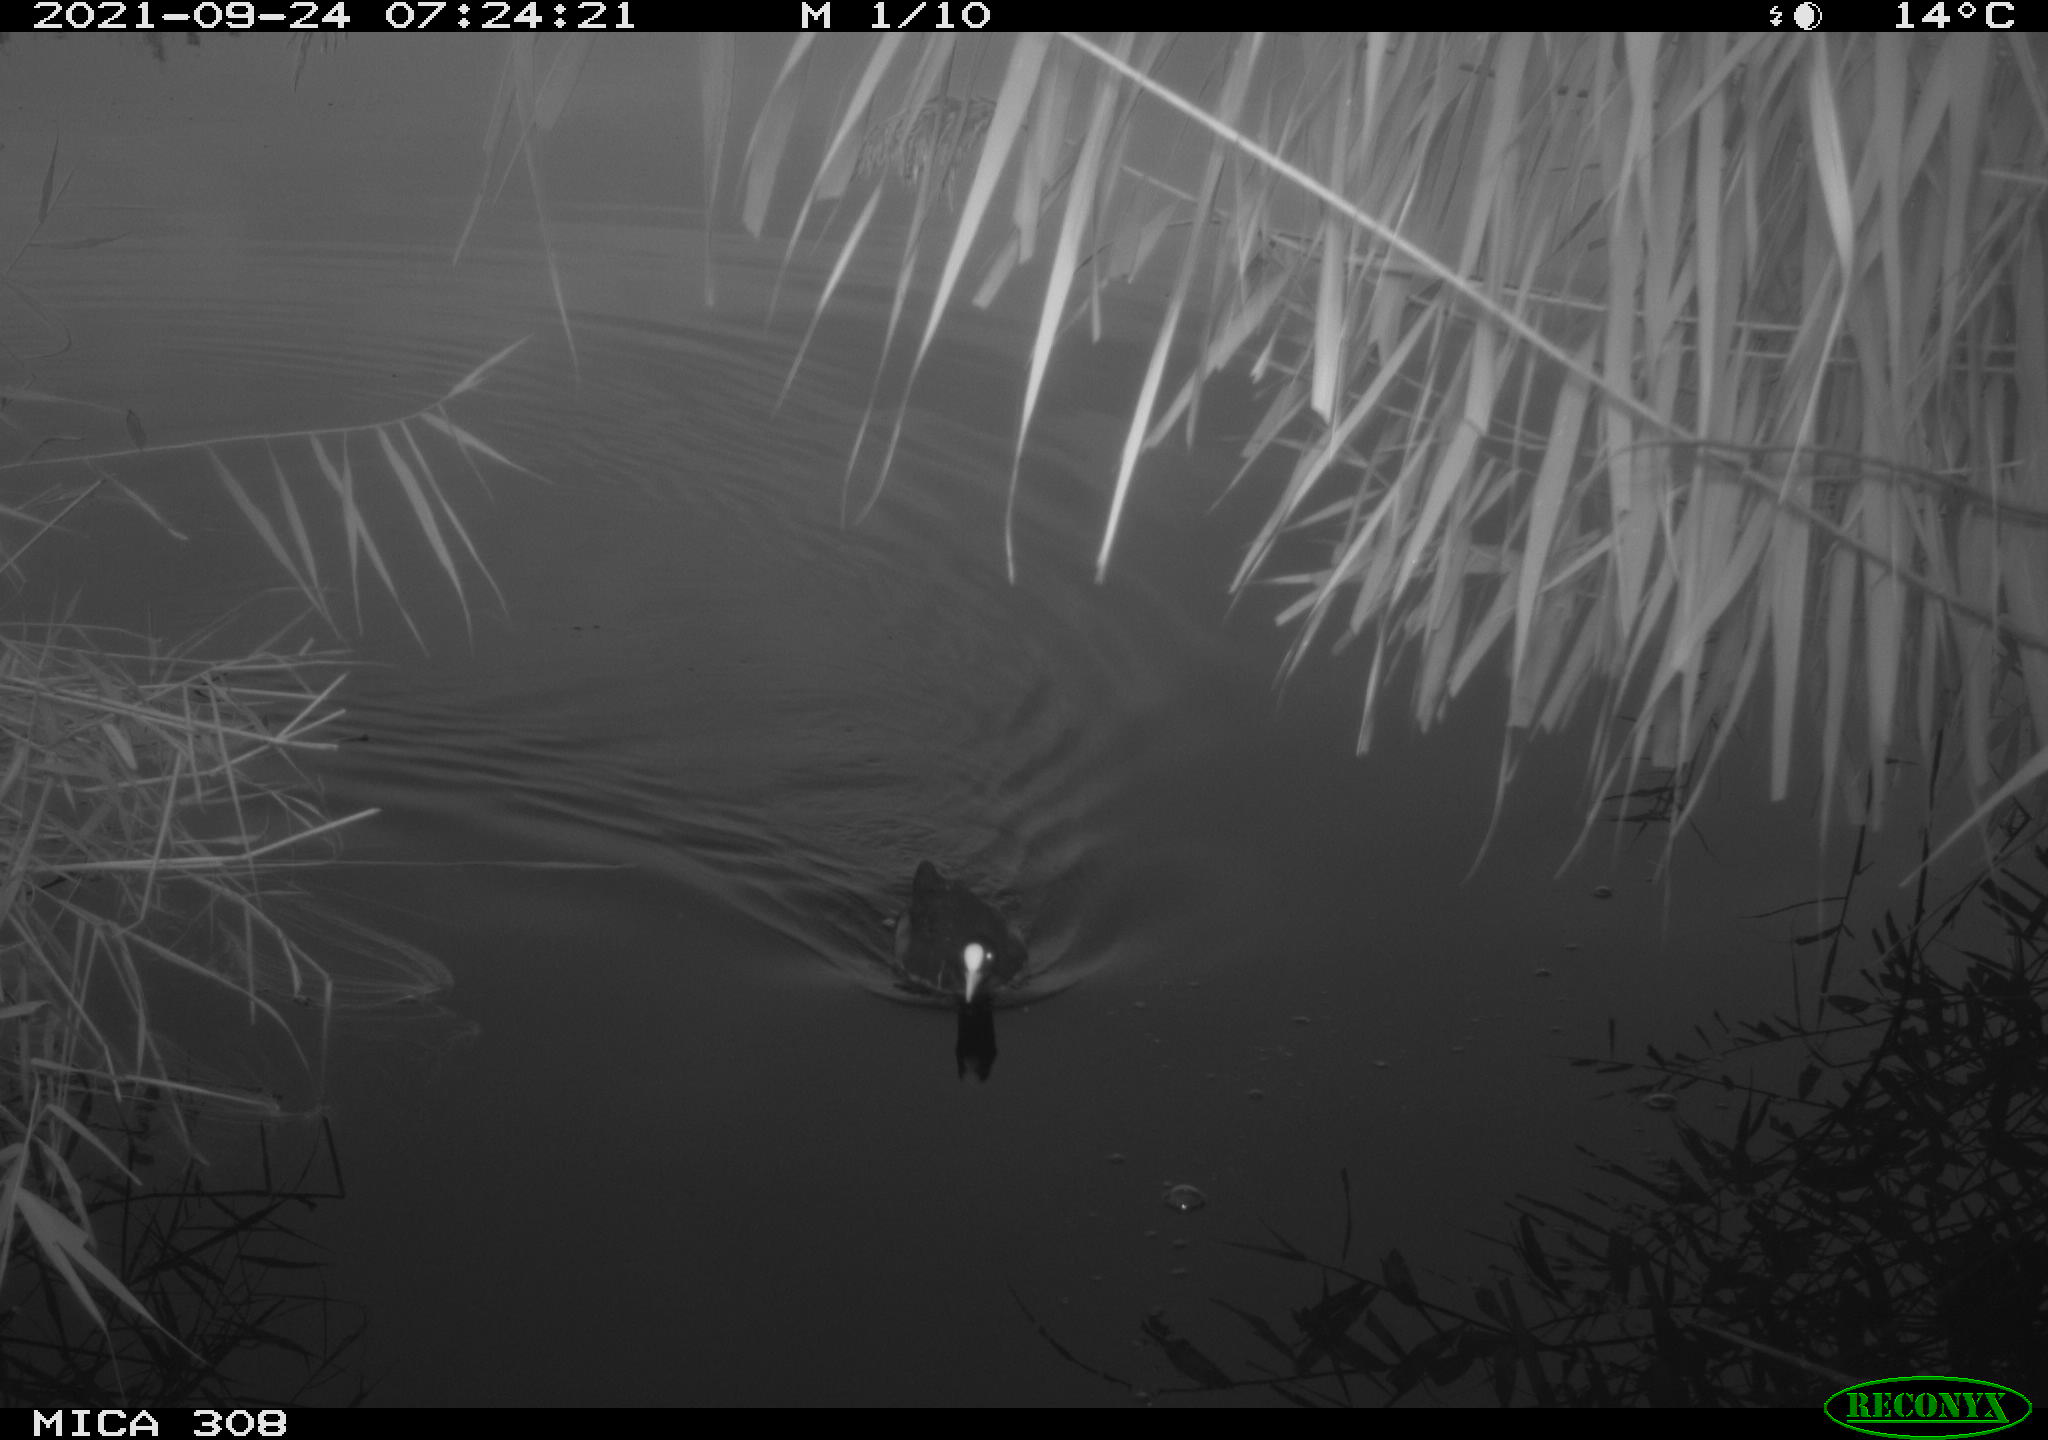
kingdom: Animalia
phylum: Chordata
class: Aves
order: Gruiformes
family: Rallidae
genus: Fulica
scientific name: Fulica atra
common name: Eurasian coot
